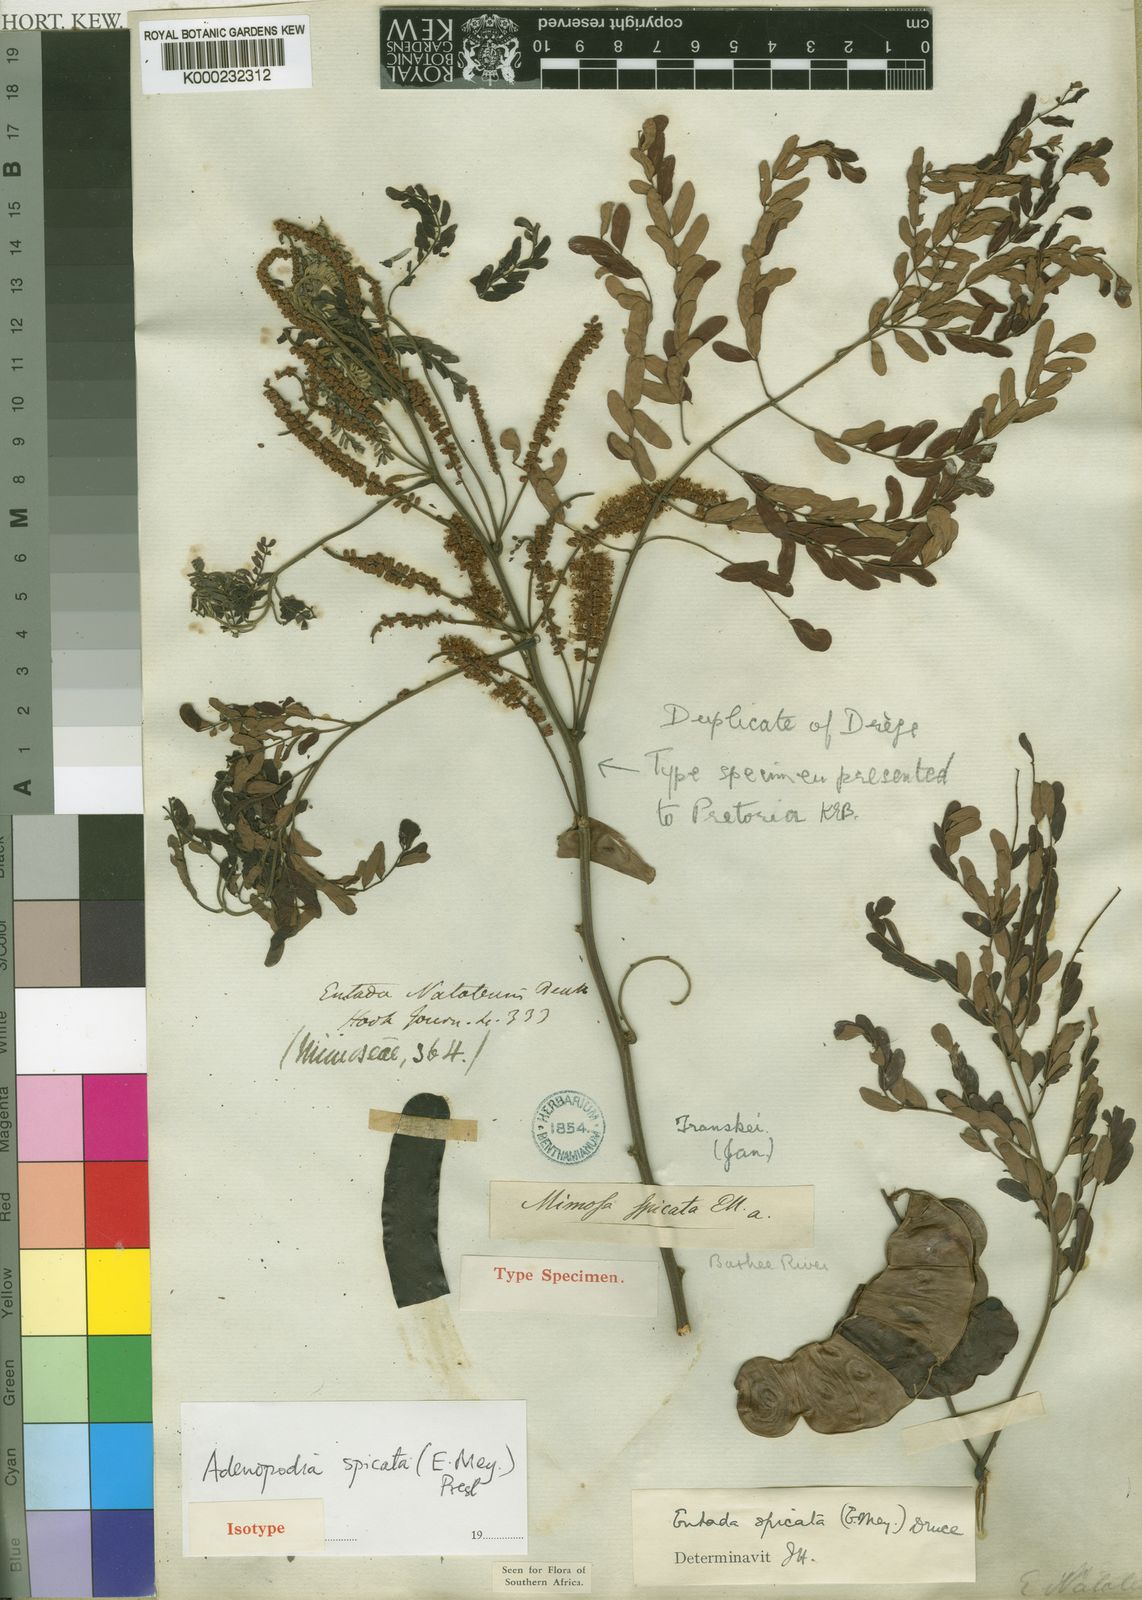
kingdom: Plantae
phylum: Tracheophyta
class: Magnoliopsida
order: Fabales
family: Fabaceae
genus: Adenopodia
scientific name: Adenopodia spicata
